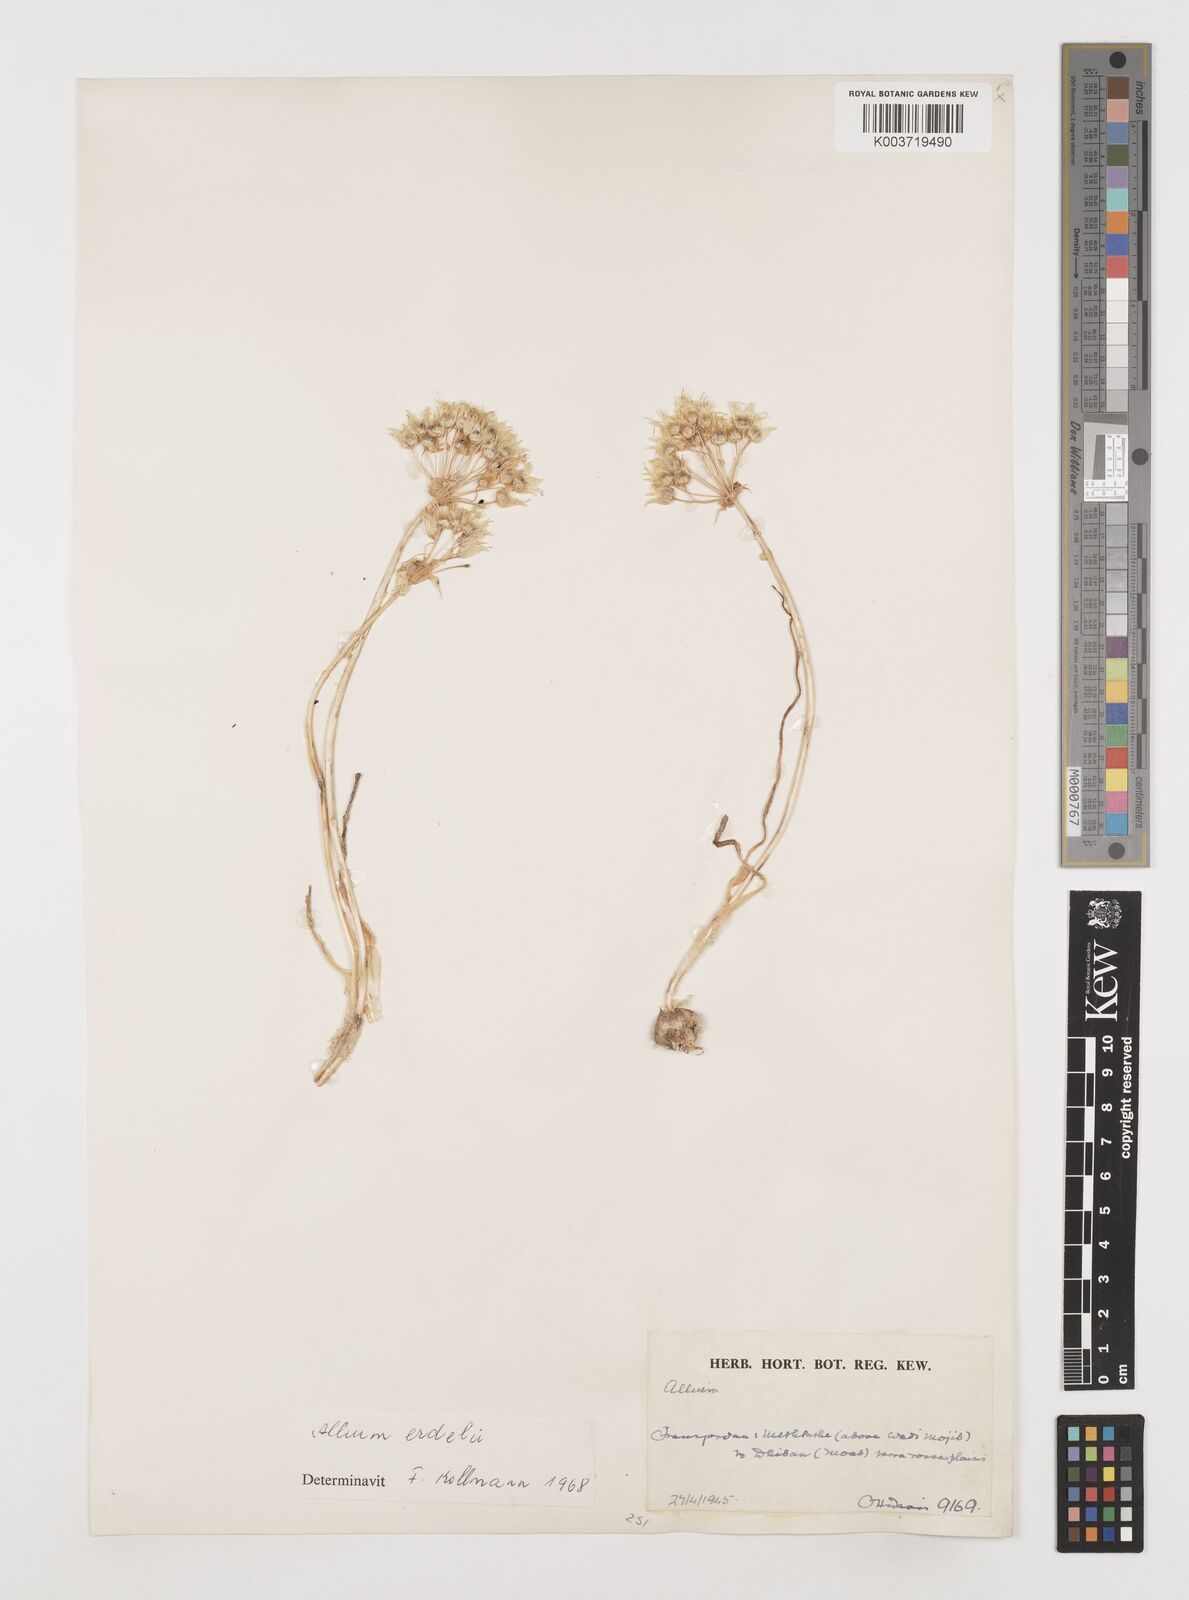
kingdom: Plantae
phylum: Tracheophyta
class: Liliopsida
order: Asparagales
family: Amaryllidaceae
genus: Allium
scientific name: Allium orientale
